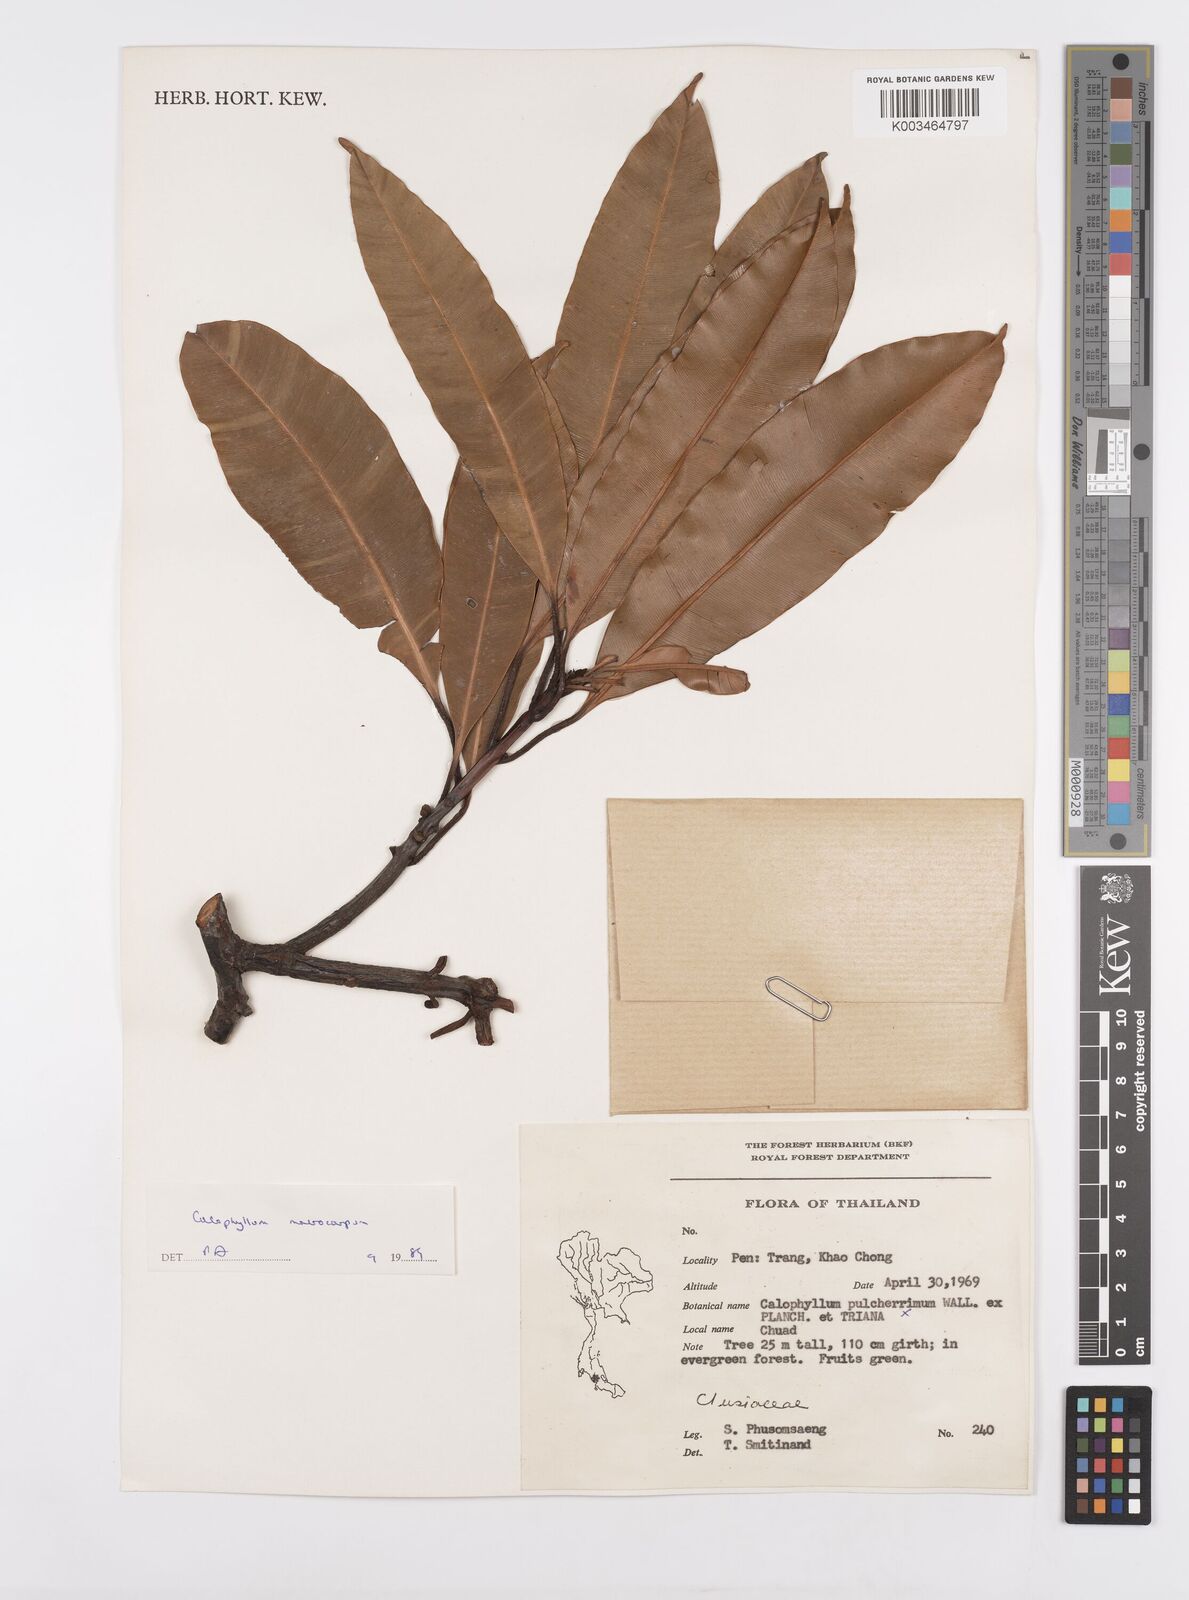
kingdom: Plantae
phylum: Tracheophyta
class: Magnoliopsida
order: Malpighiales
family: Calophyllaceae
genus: Calophyllum
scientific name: Calophyllum macrocarpum
